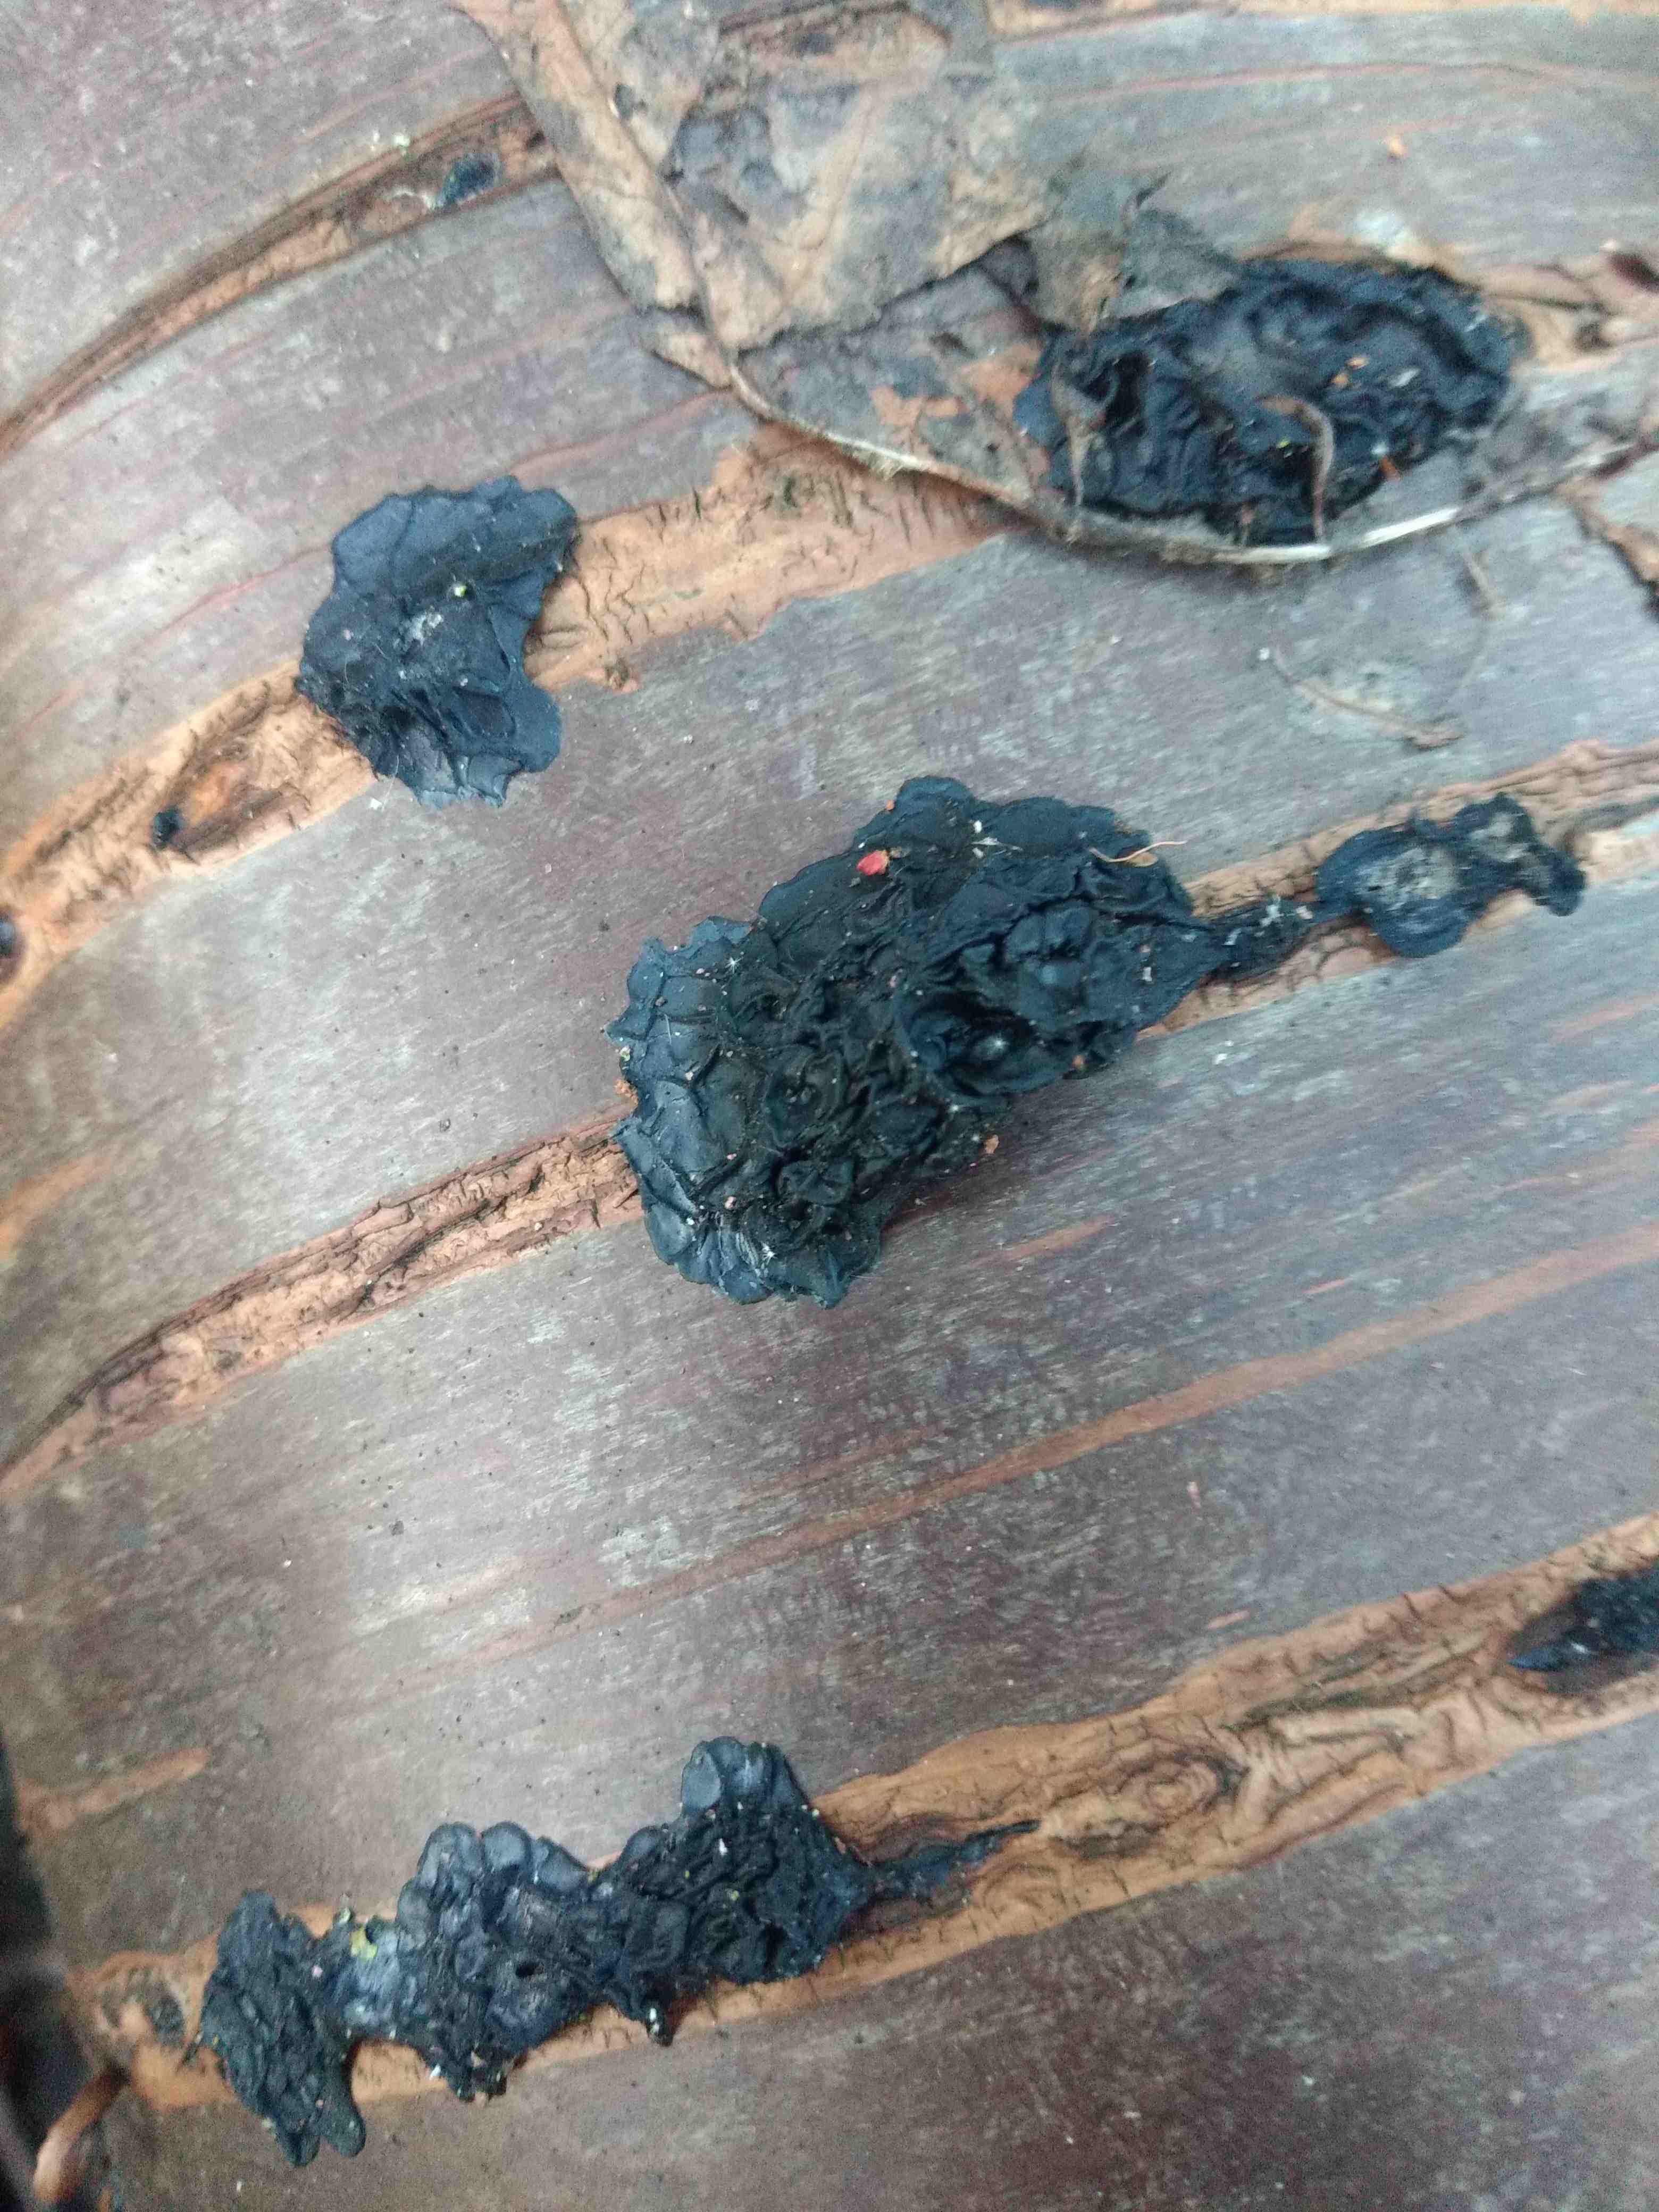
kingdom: Fungi
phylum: Basidiomycota
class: Agaricomycetes
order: Auriculariales
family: Auriculariaceae
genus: Exidia
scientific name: Exidia nigricans
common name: almindelig bævretop
